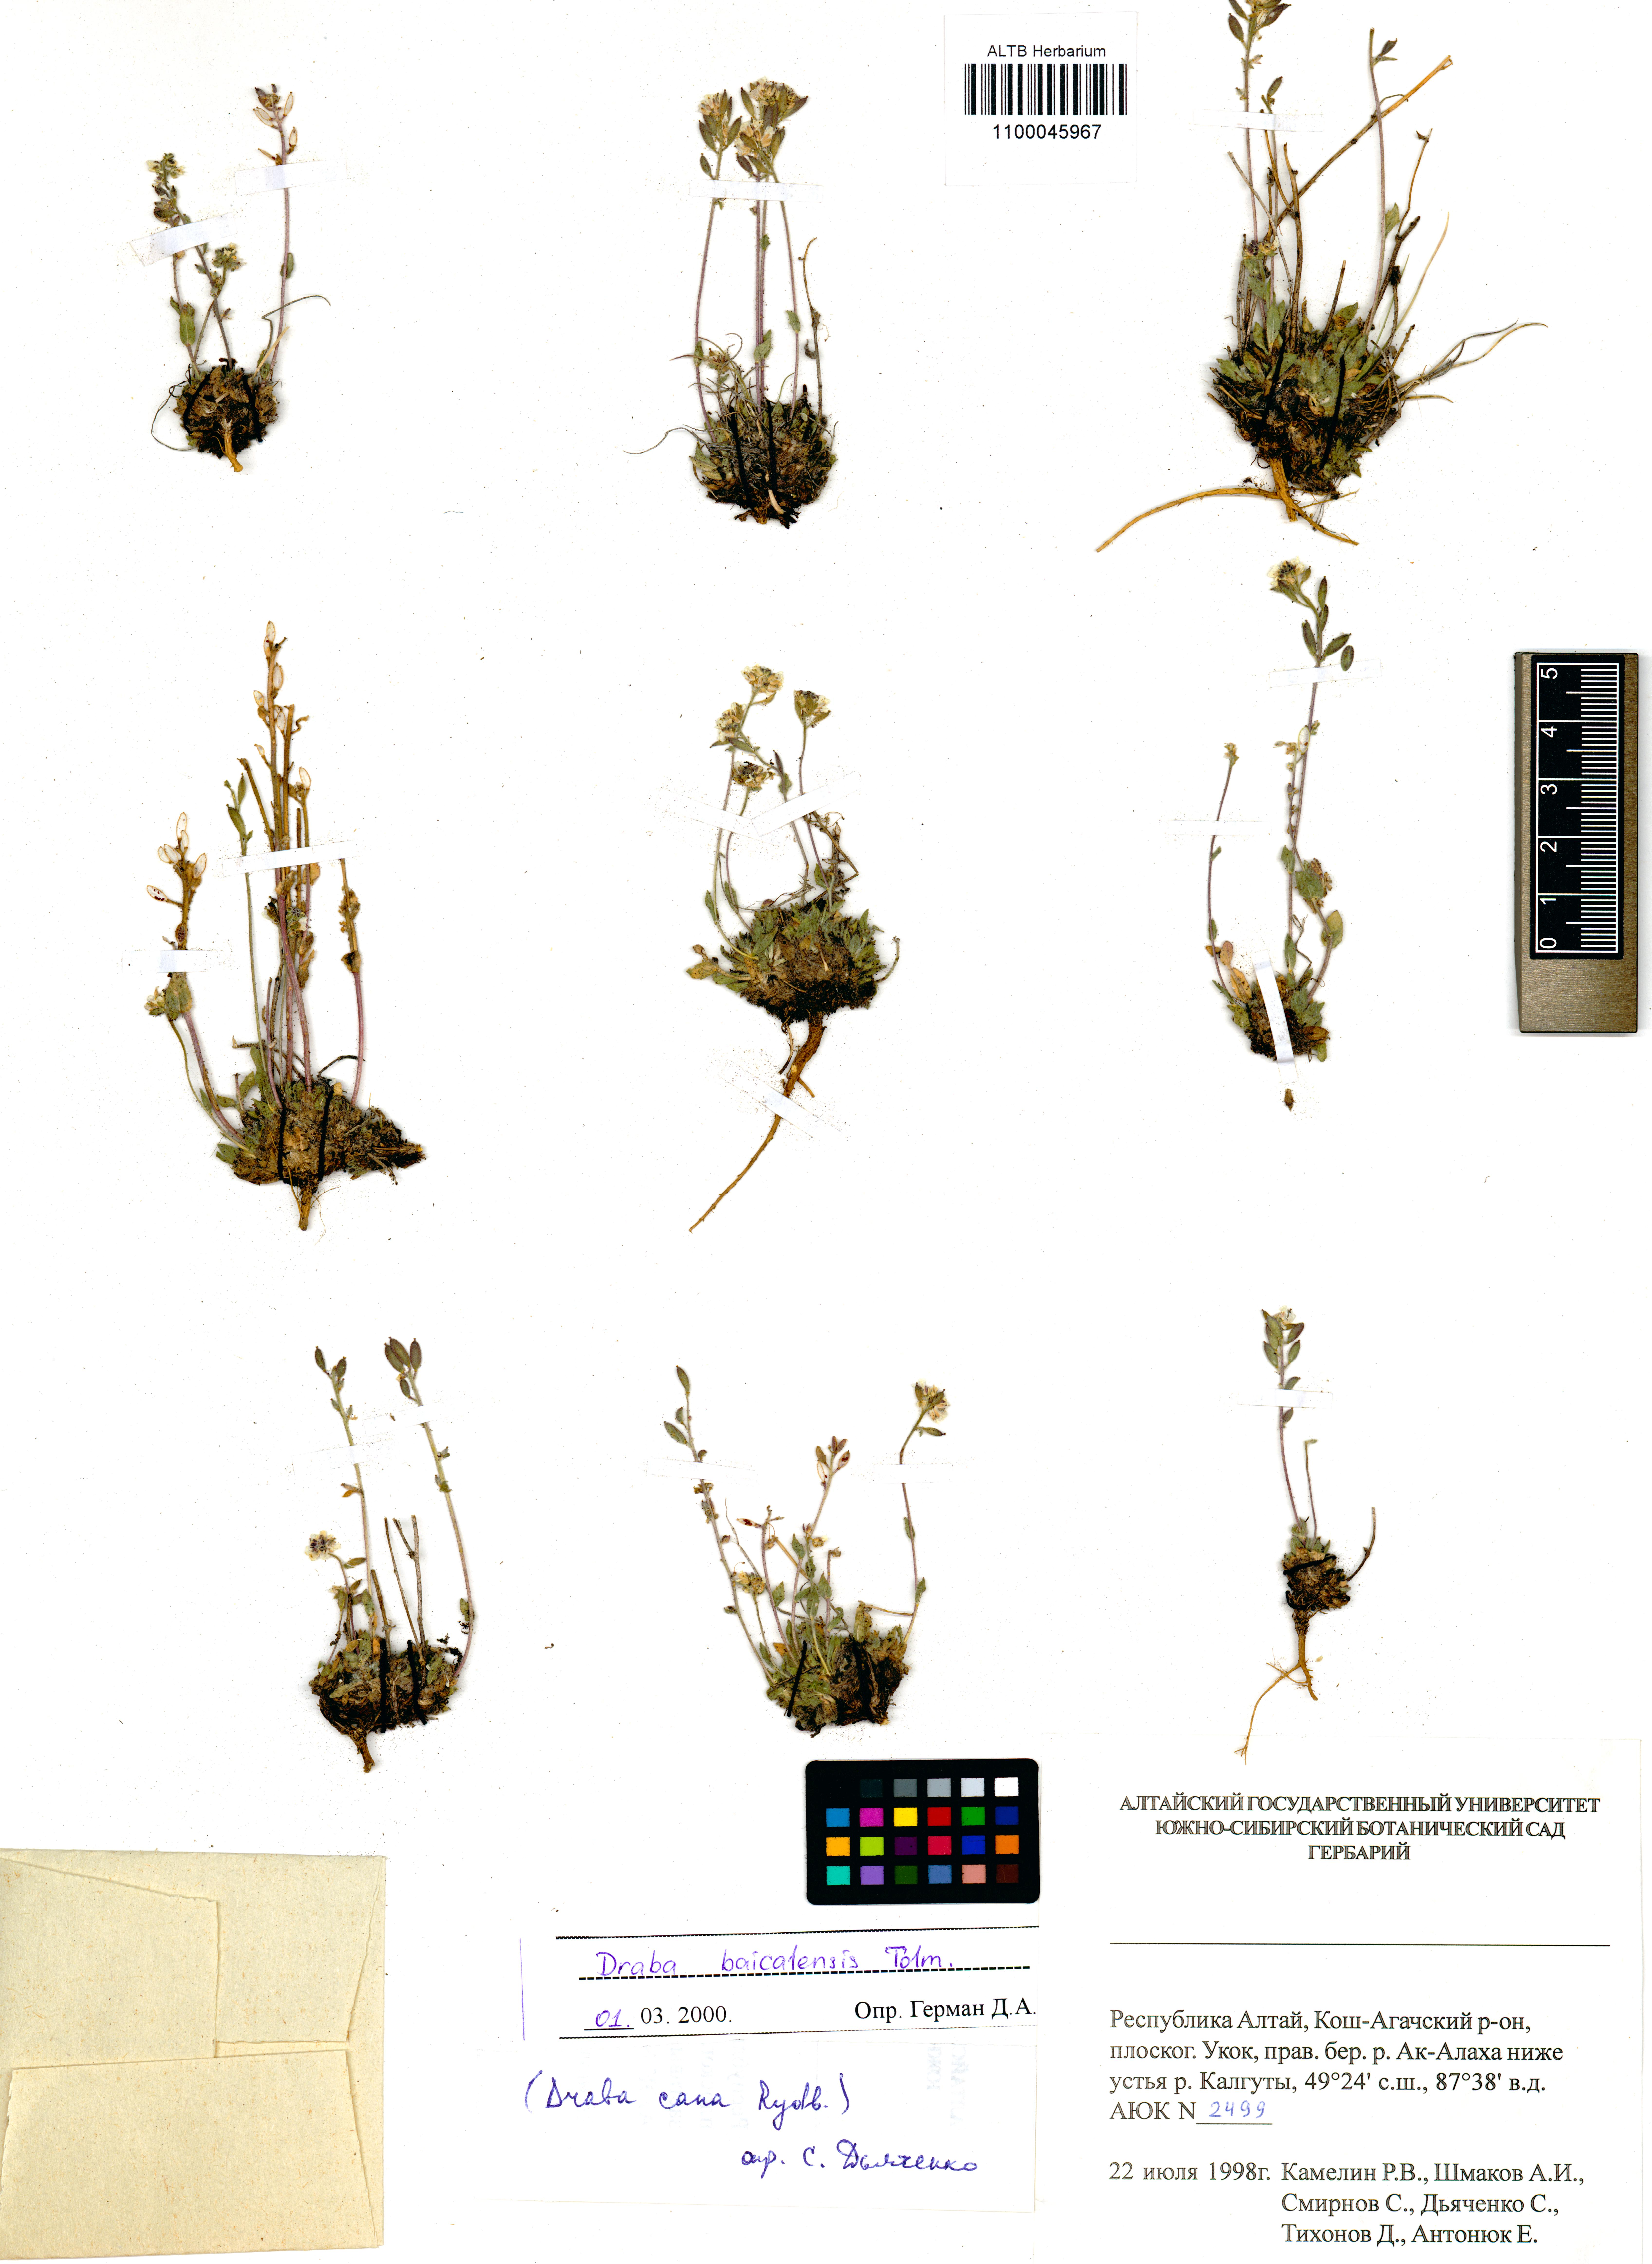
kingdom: Plantae
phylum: Tracheophyta
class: Magnoliopsida
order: Brassicales
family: Brassicaceae
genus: Draba
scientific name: Draba baicalensis
